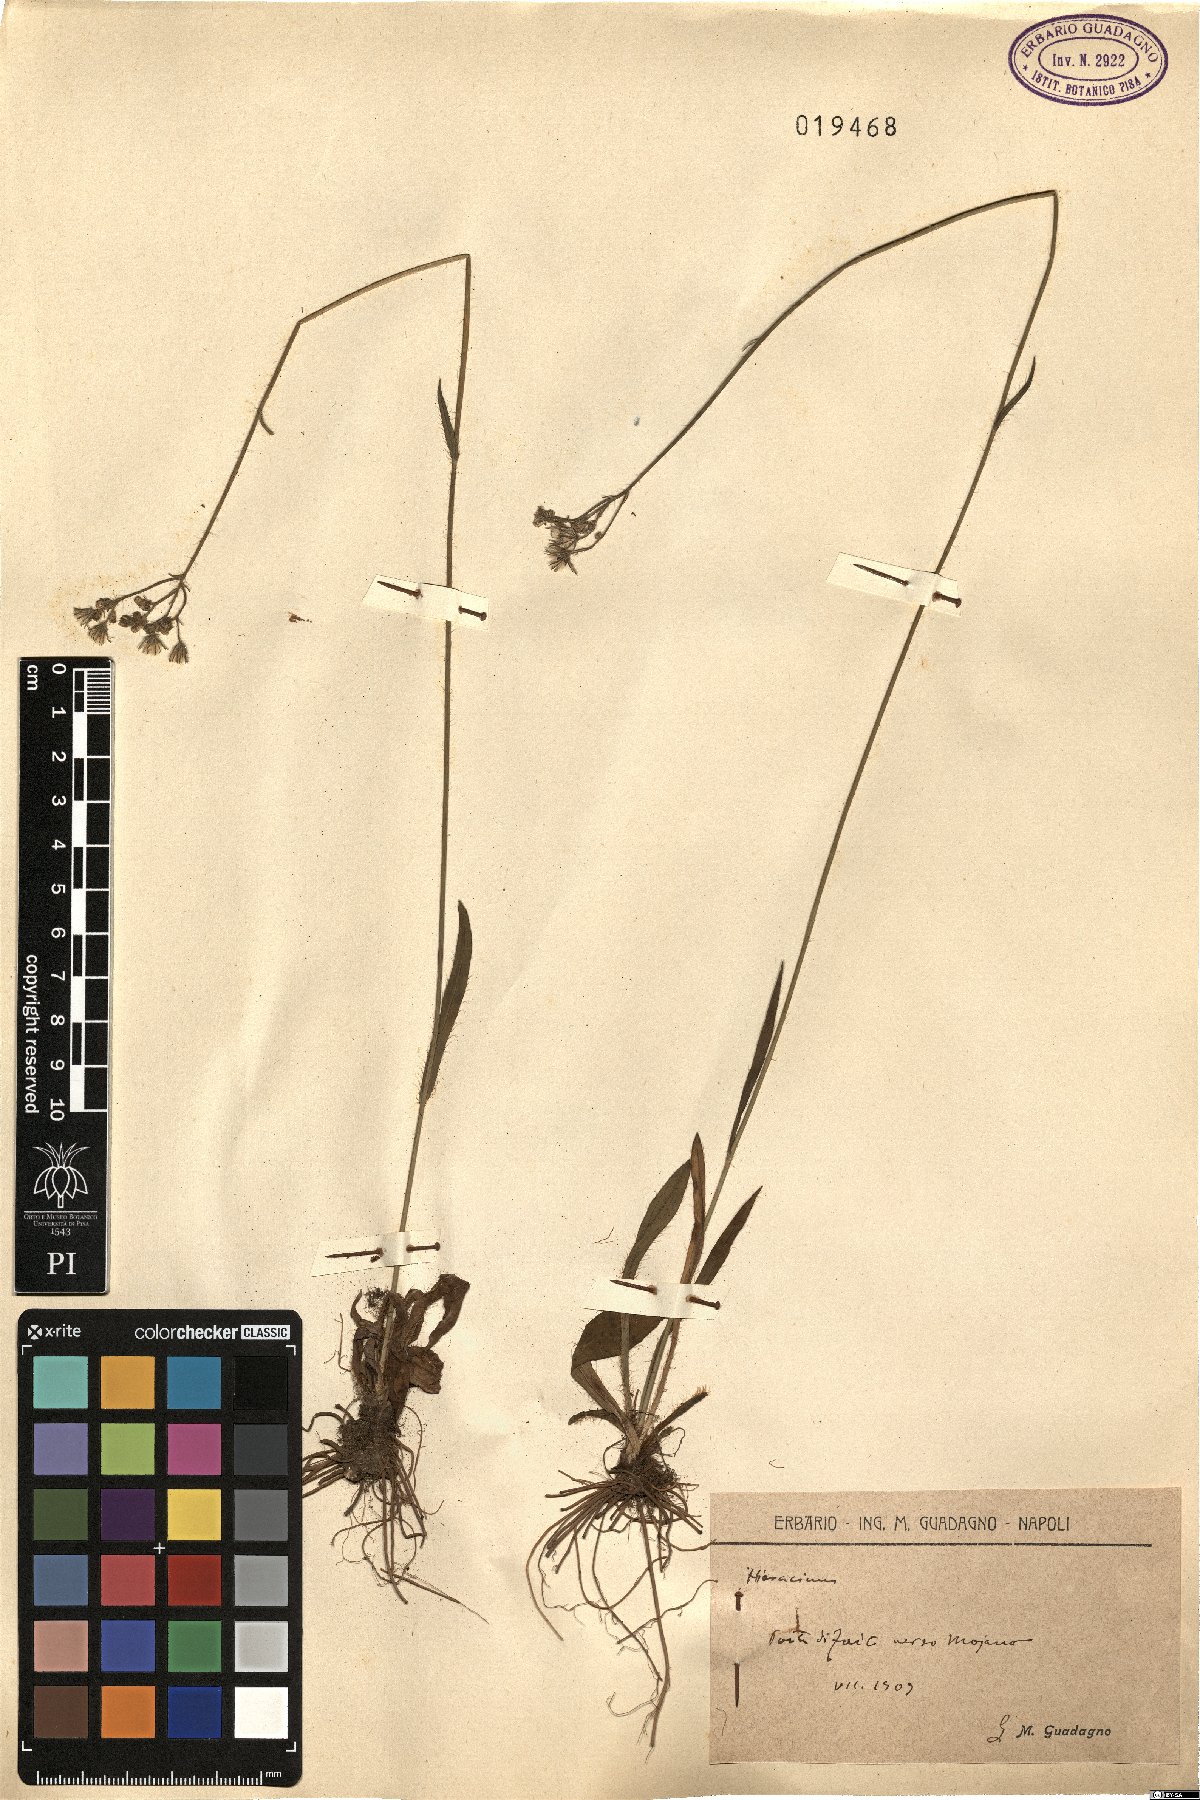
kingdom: Plantae
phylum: Tracheophyta
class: Magnoliopsida
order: Asterales
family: Asteraceae
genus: Hieracium
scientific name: Hieracium
